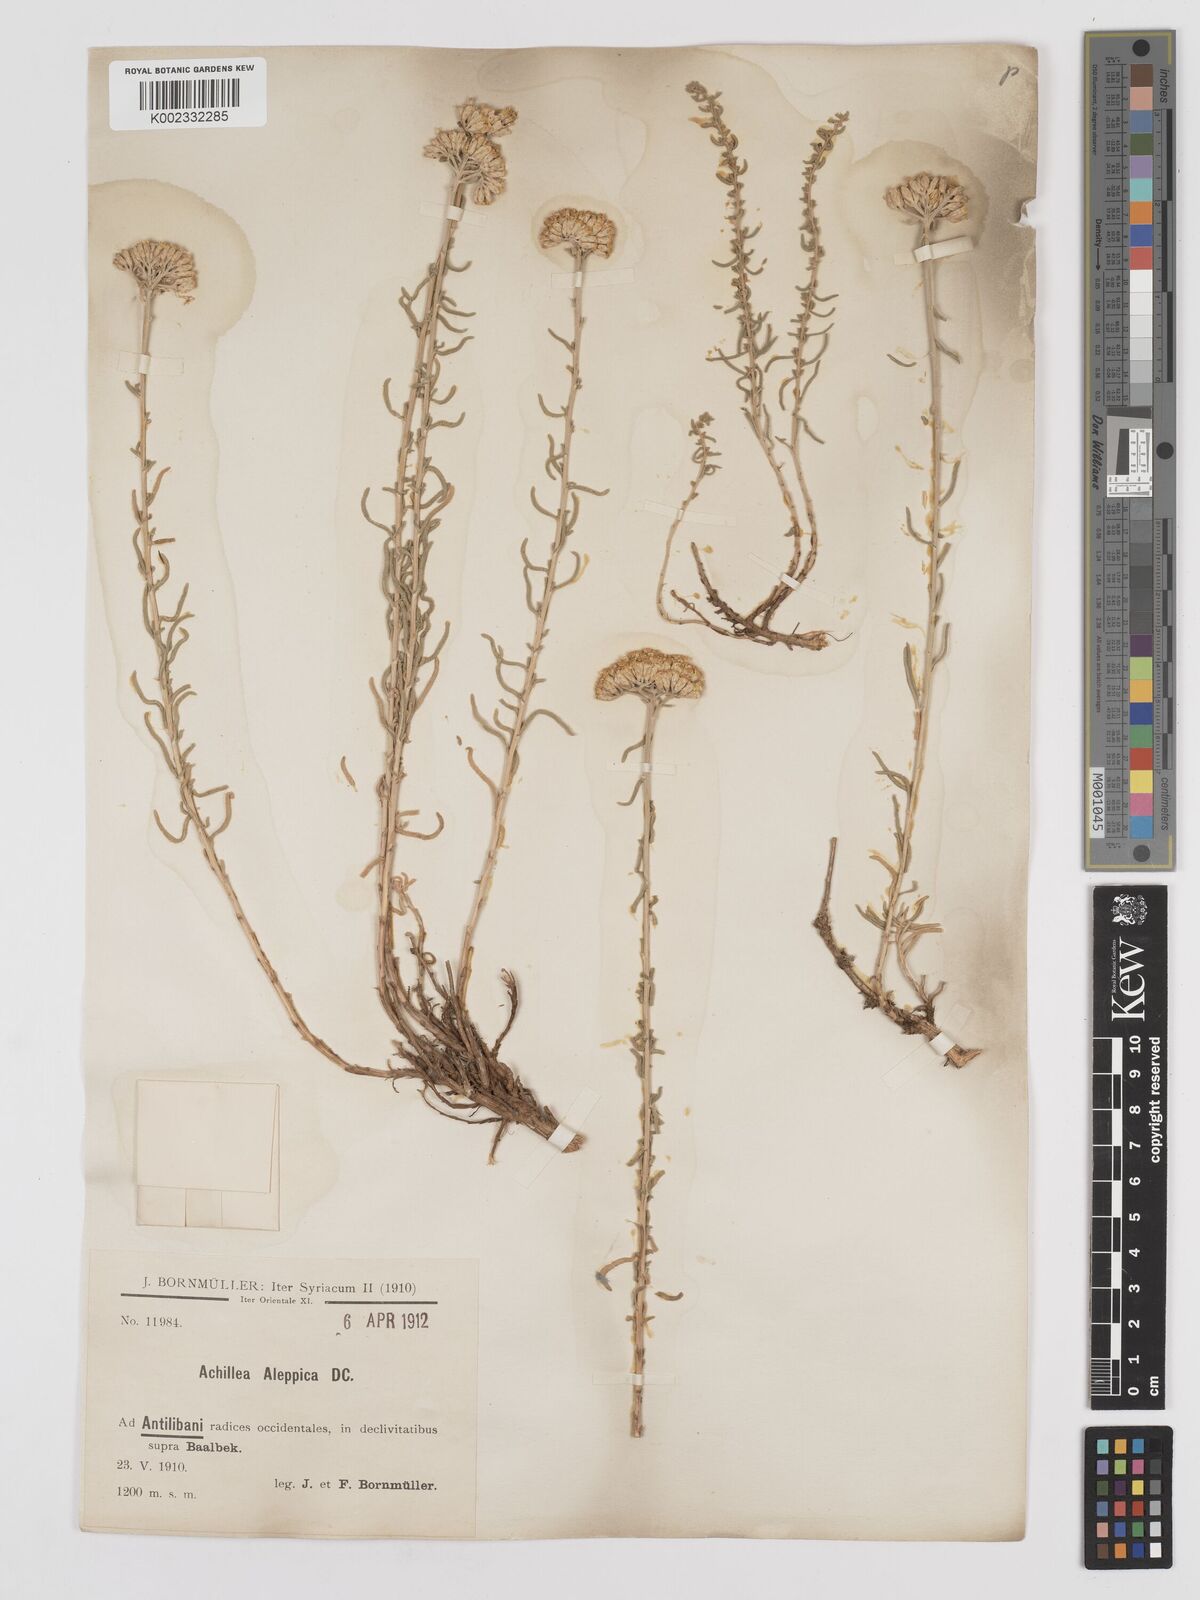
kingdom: Plantae
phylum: Tracheophyta
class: Magnoliopsida
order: Asterales
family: Asteraceae
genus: Achillea
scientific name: Achillea aleppica
